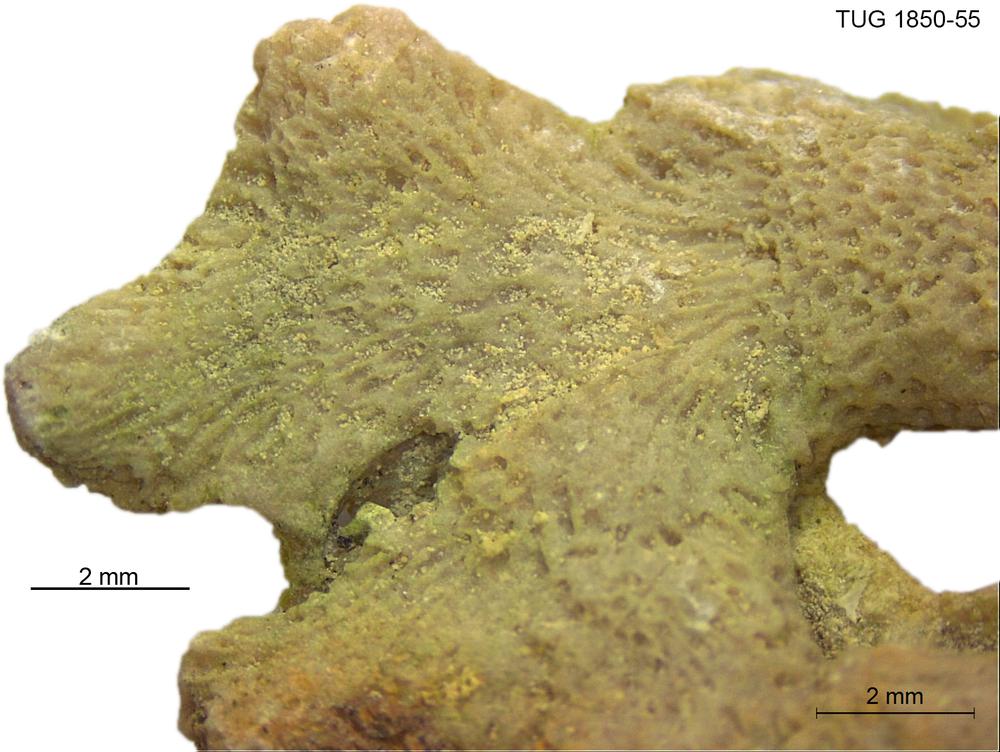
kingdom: Animalia
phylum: Cnidaria
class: Anthozoa
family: Coenitidae
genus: Coenites
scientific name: Coenites juniperinus
